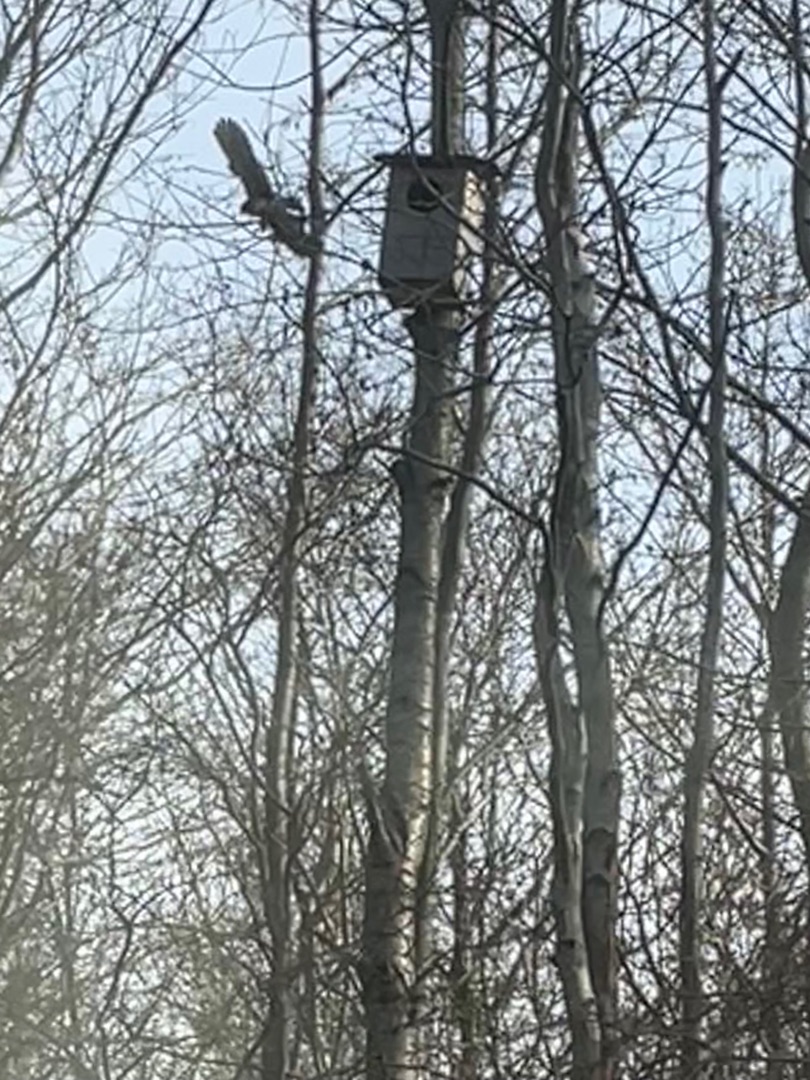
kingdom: Animalia
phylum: Chordata
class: Aves
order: Falconiformes
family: Falconidae
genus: Falco
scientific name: Falco tinnunculus
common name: Tårnfalk
